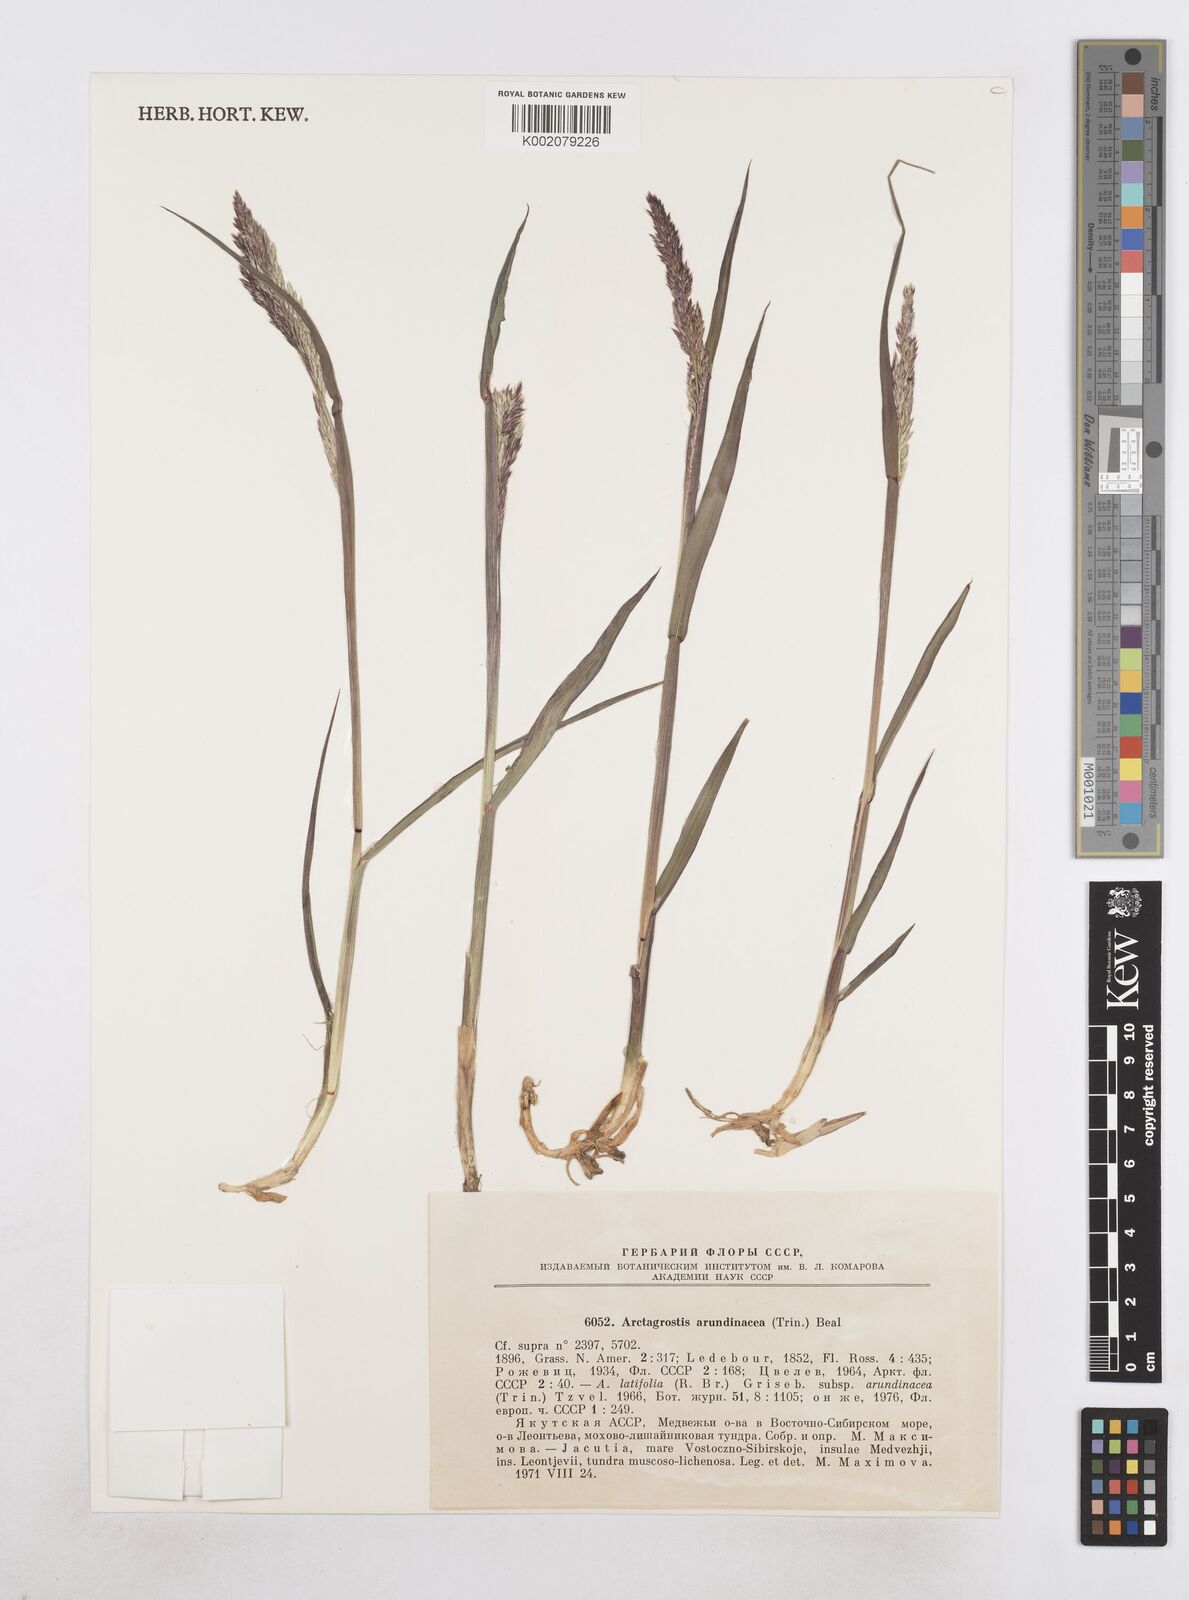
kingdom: Plantae
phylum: Tracheophyta
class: Liliopsida
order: Poales
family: Poaceae
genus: Arctagrostis
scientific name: Arctagrostis latifolia
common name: Arctic grass
